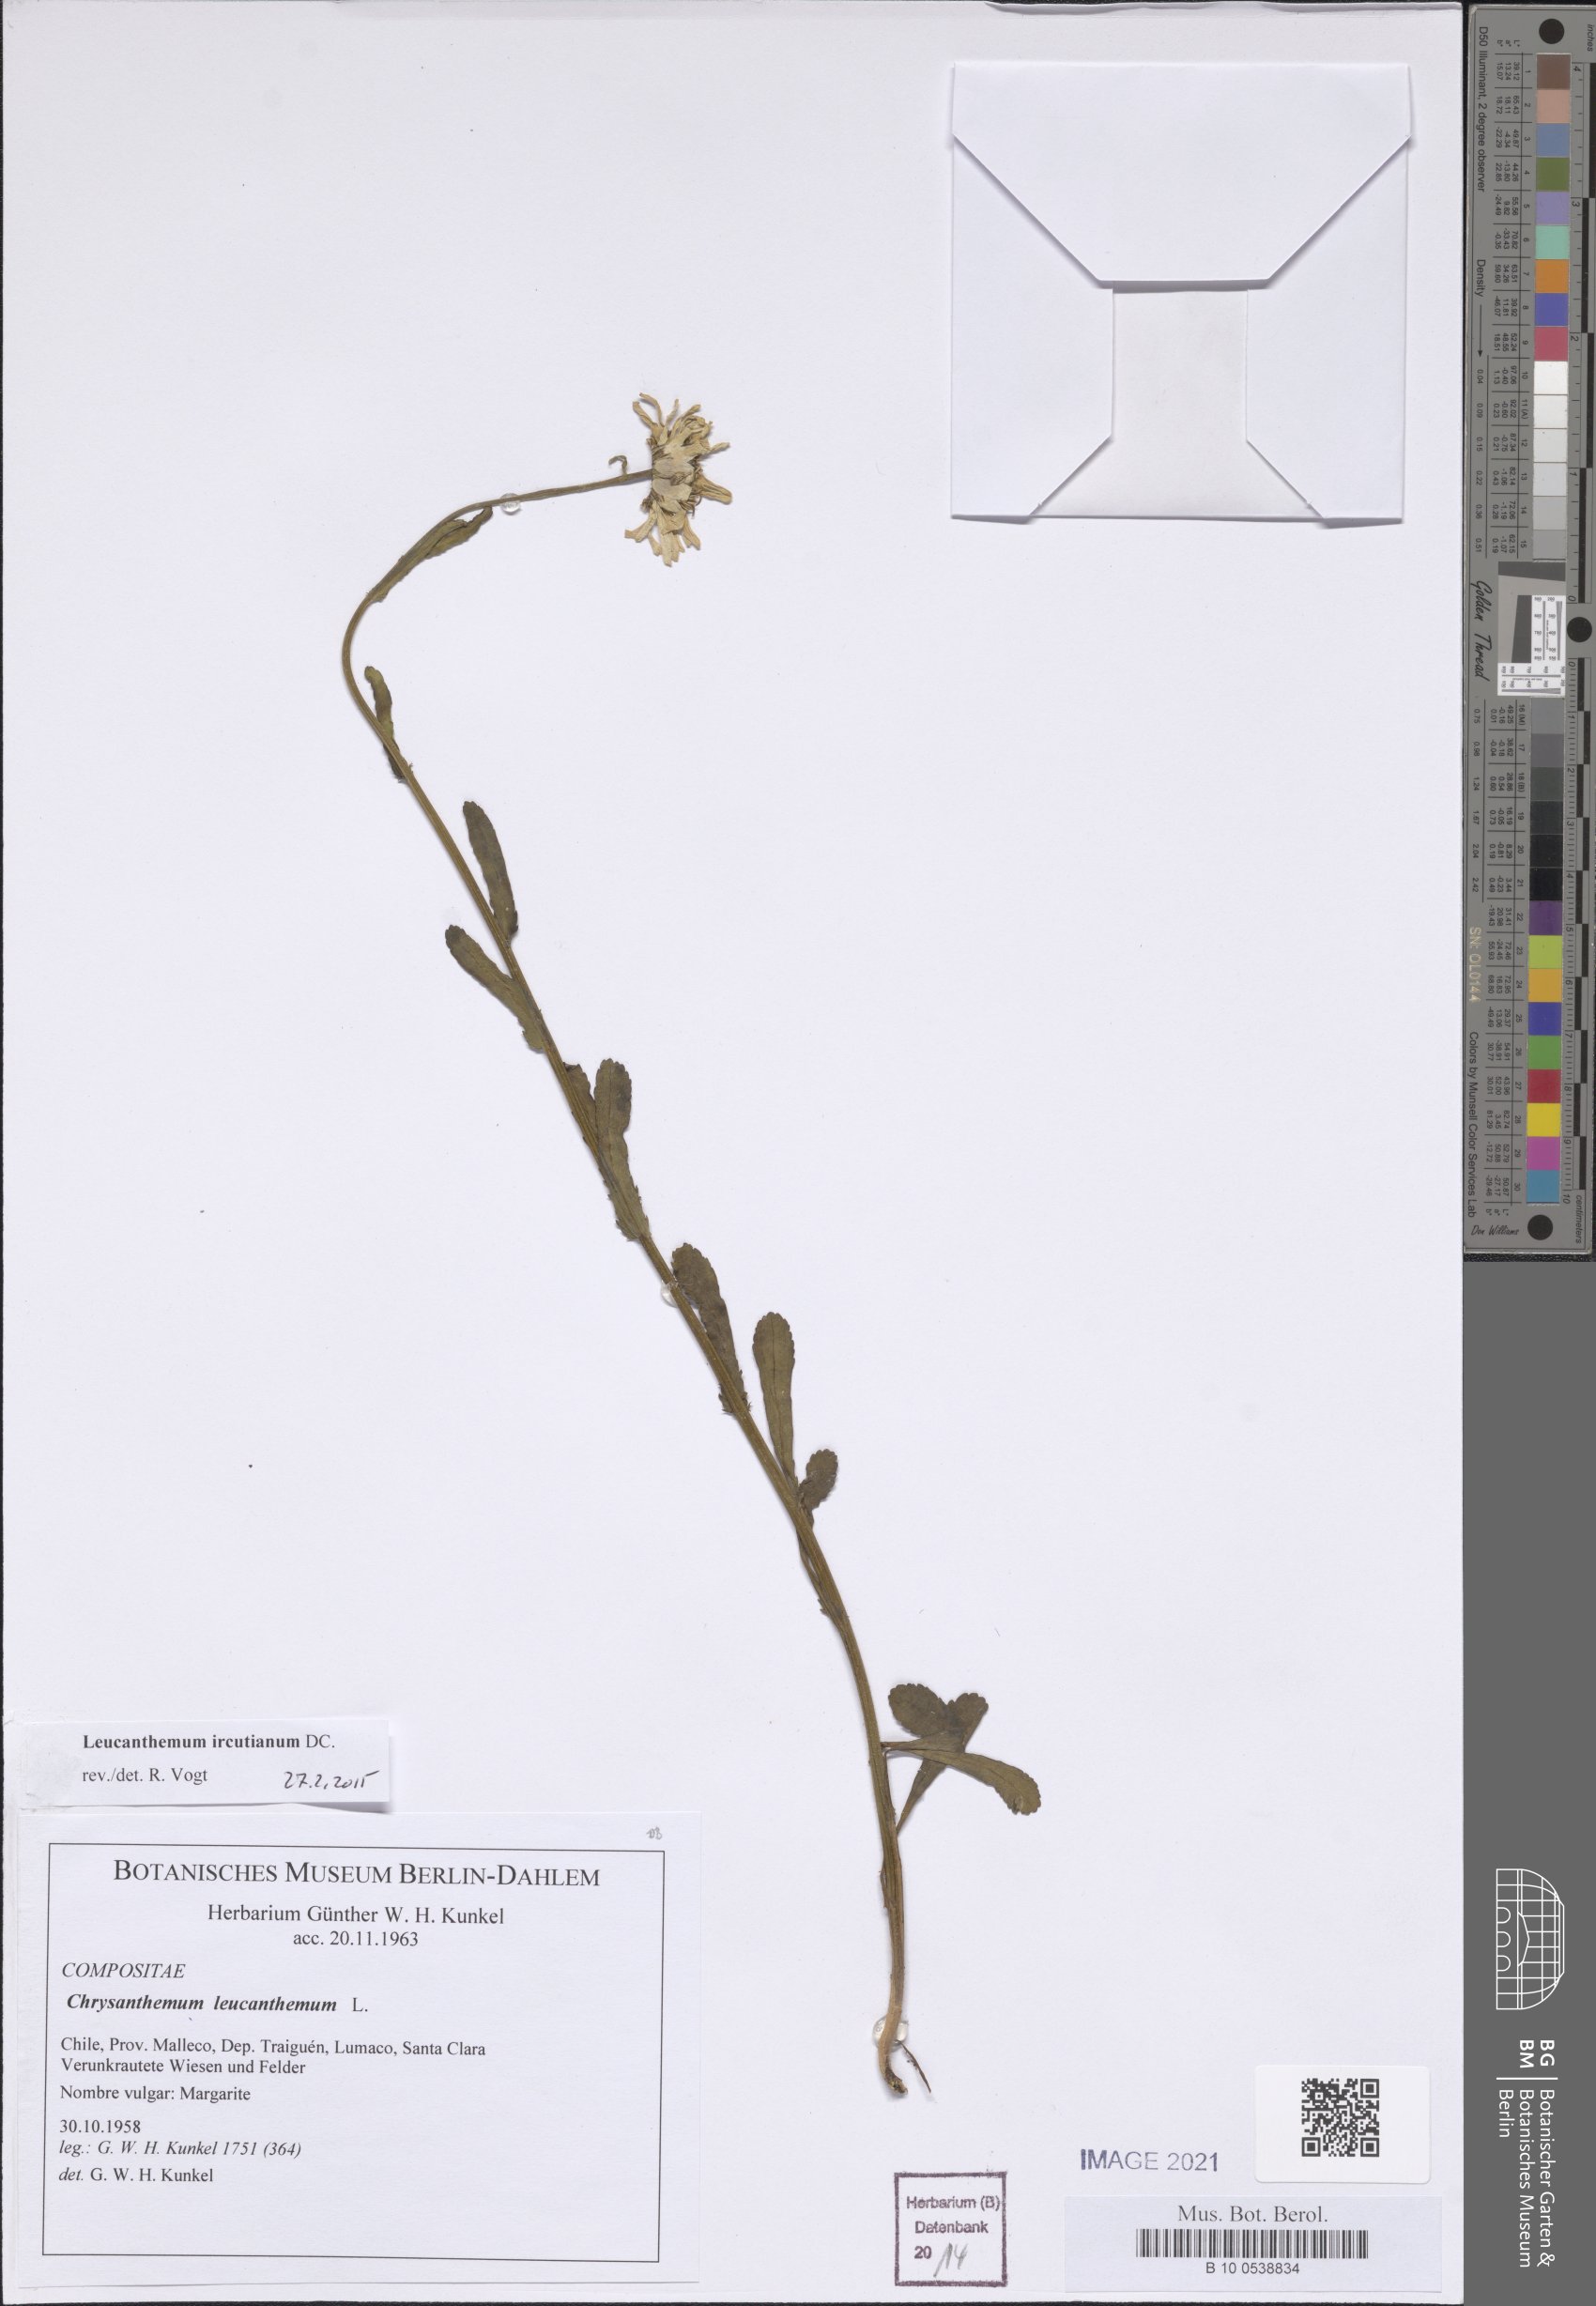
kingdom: Plantae
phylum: Tracheophyta
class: Magnoliopsida
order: Asterales
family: Asteraceae
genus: Leucanthemum
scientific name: Leucanthemum ircutianum
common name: Daisy
